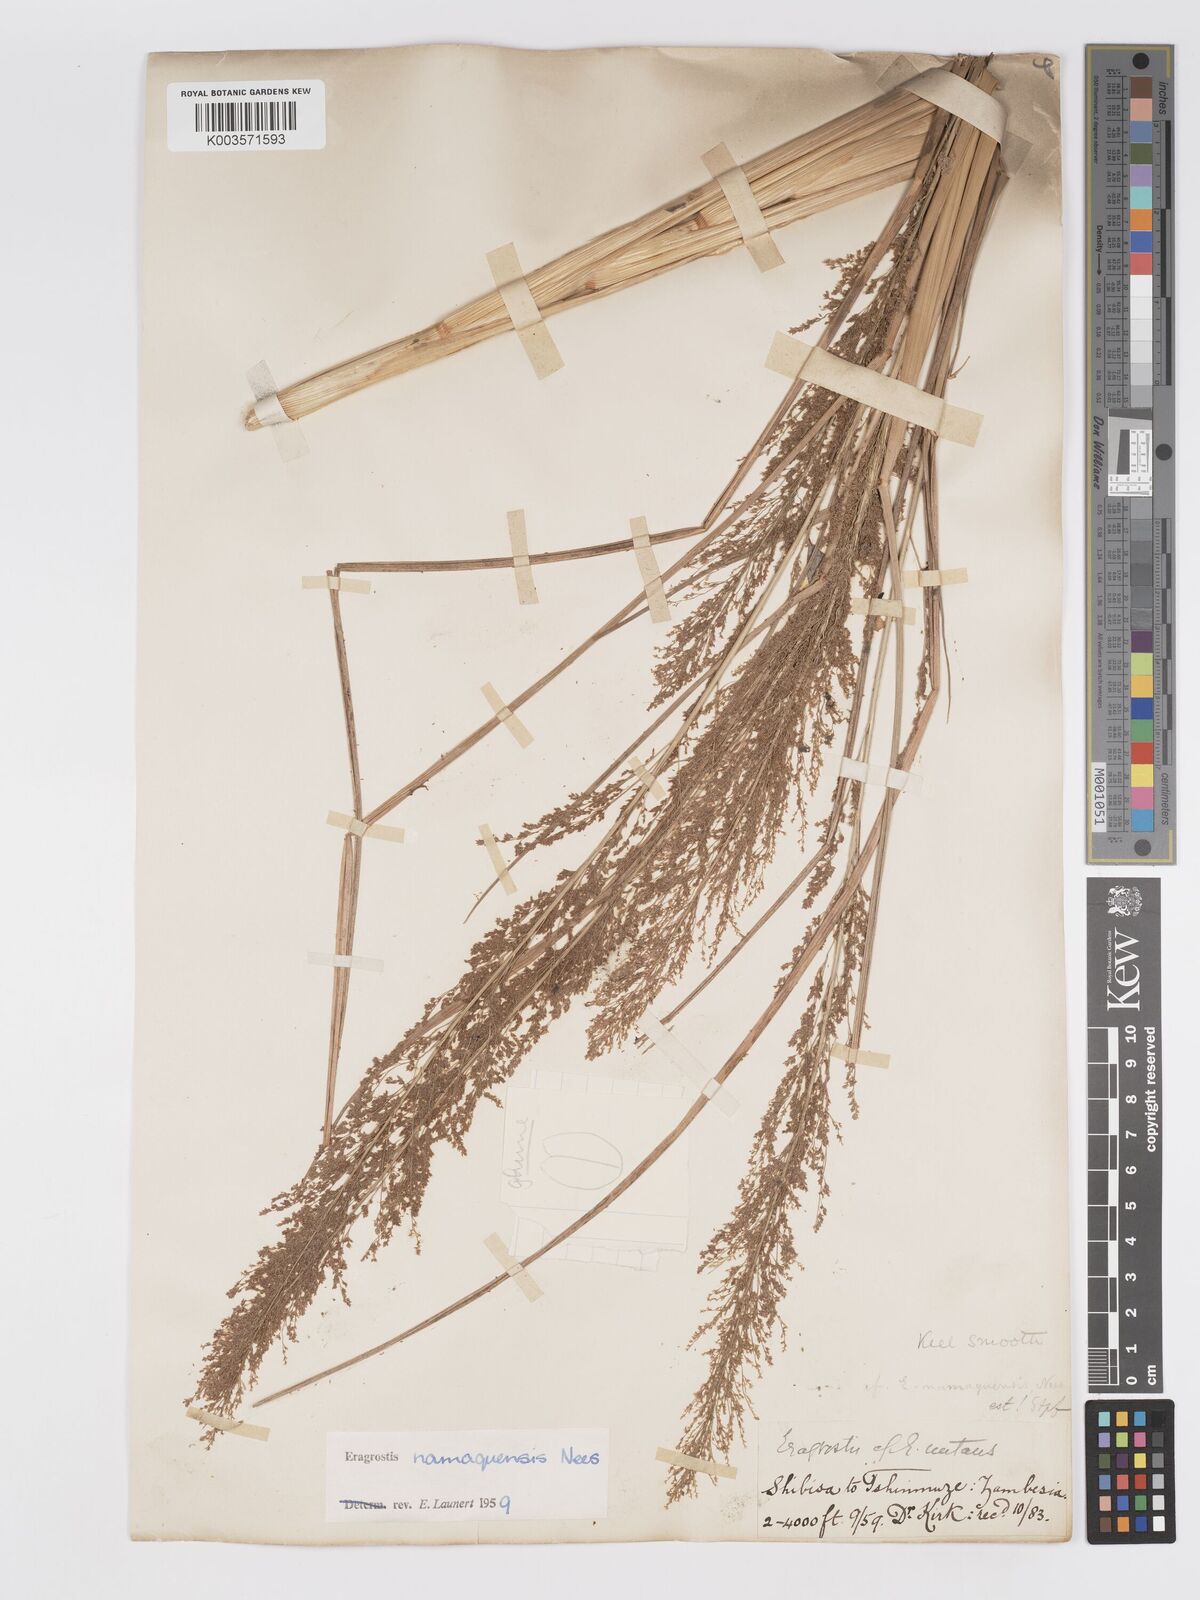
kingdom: Plantae
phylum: Tracheophyta
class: Liliopsida
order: Poales
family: Poaceae
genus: Eragrostis
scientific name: Eragrostis japonica
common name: Pond lovegrass
